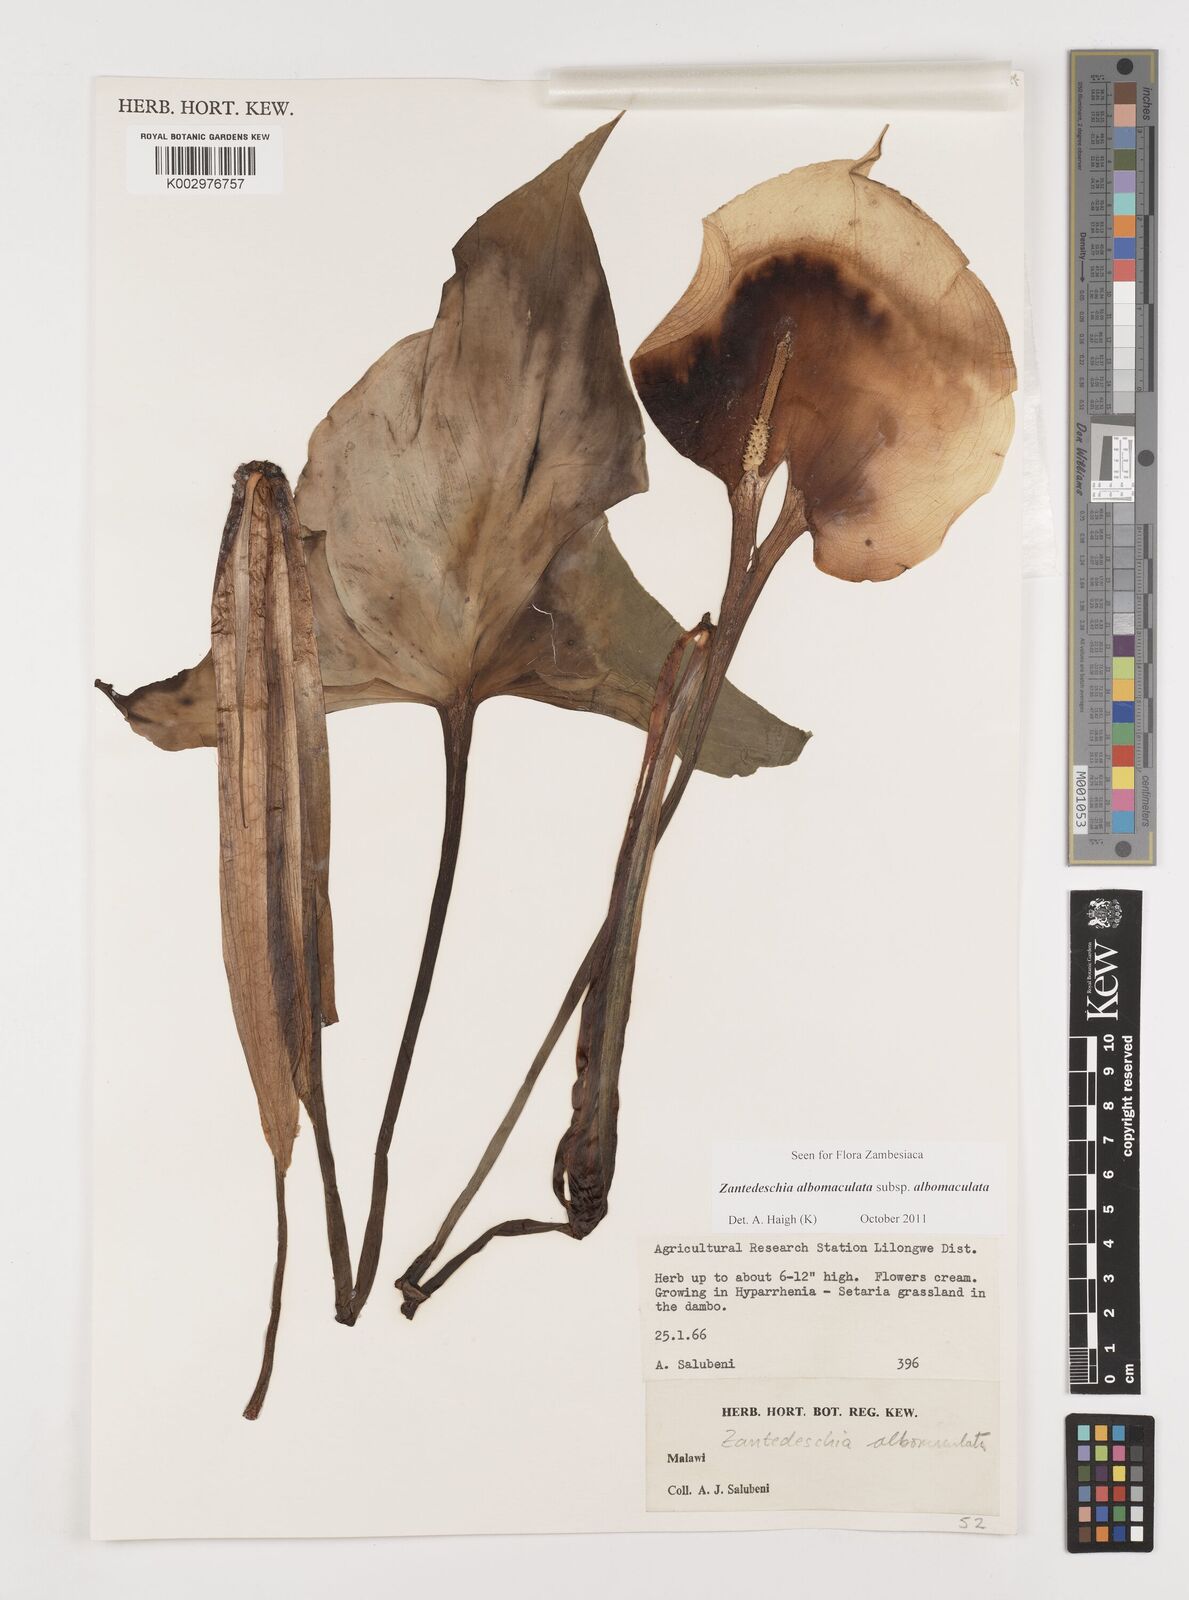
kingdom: Plantae
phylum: Tracheophyta
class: Liliopsida
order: Alismatales
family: Araceae
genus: Zantedeschia
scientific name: Zantedeschia albomaculata
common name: Spotted calla lily
